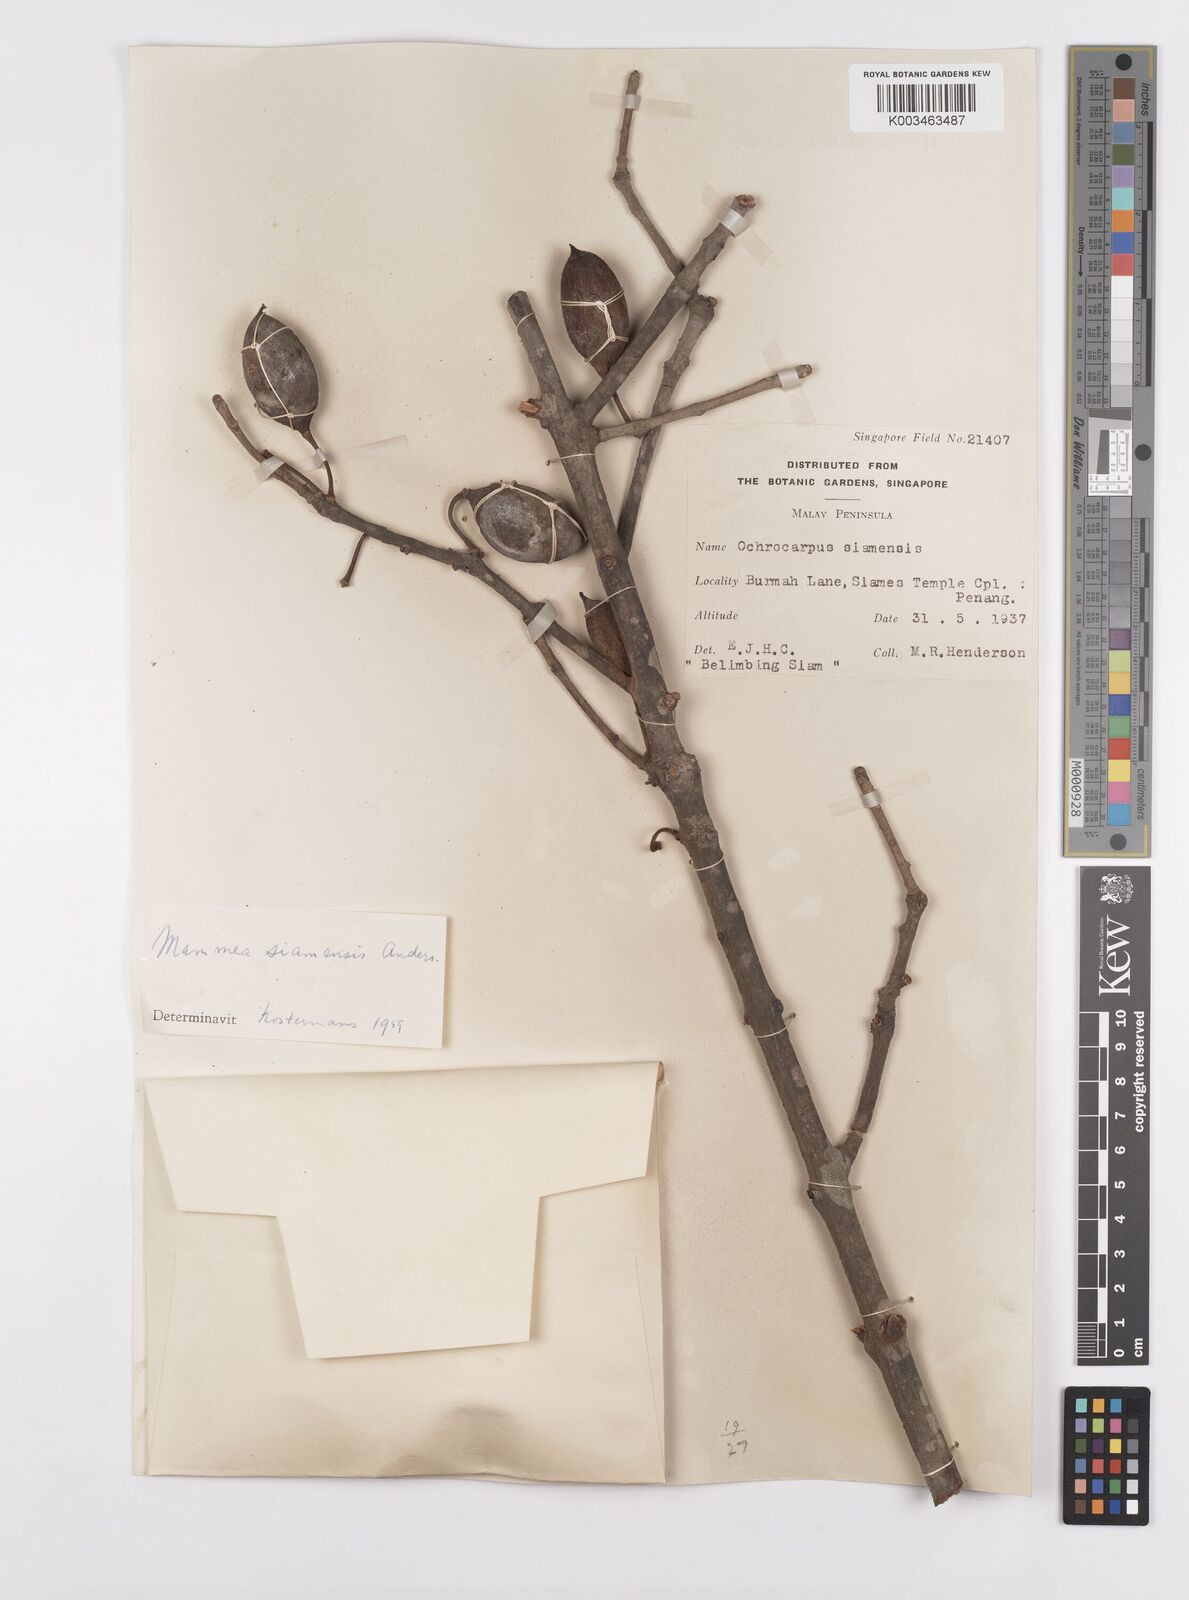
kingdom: Plantae
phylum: Tracheophyta
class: Magnoliopsida
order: Malpighiales
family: Calophyllaceae
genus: Mammea
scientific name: Mammea siamensis
